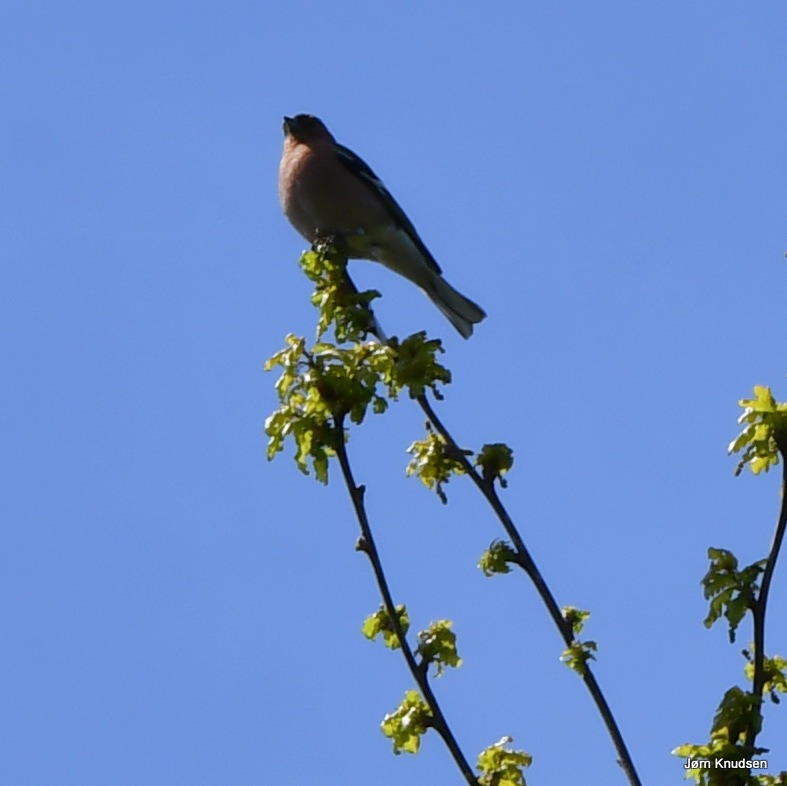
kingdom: Animalia
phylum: Chordata
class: Aves
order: Passeriformes
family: Fringillidae
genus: Fringilla
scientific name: Fringilla coelebs
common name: Bogfinke
